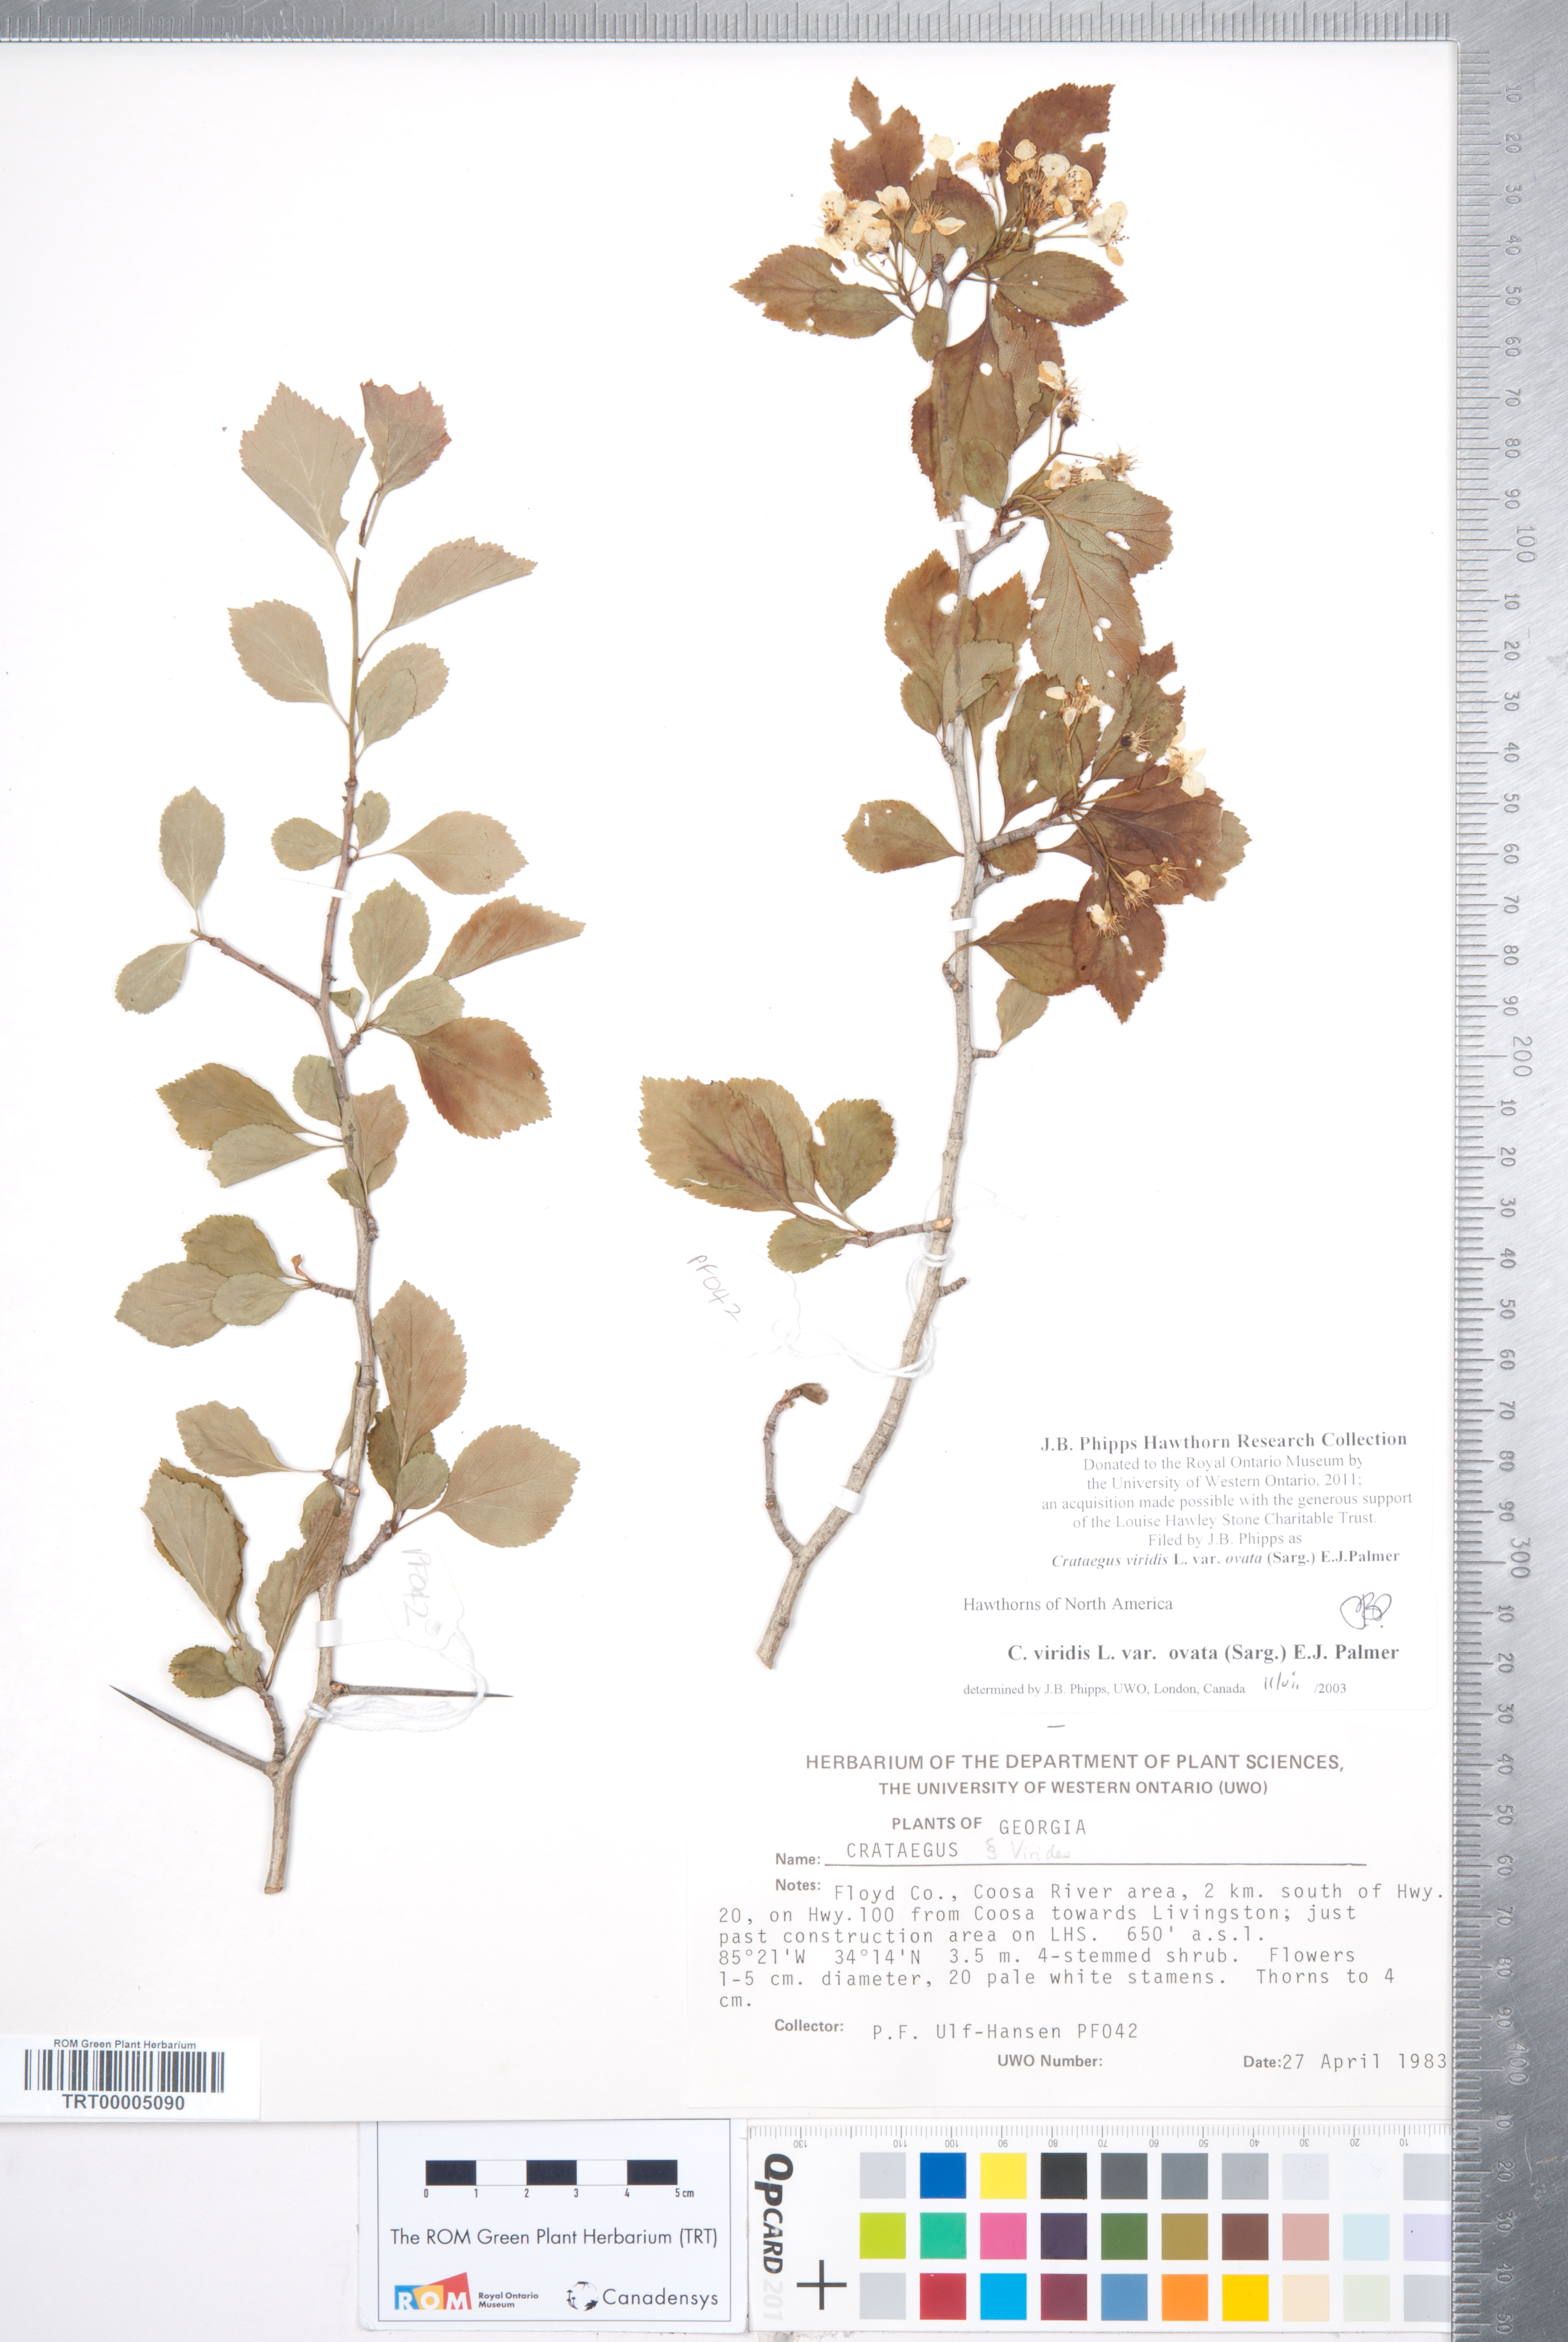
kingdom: Plantae
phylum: Tracheophyta
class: Magnoliopsida
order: Rosales
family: Rosaceae
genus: Crataegus
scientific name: Crataegus viridis
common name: Southernthorn
